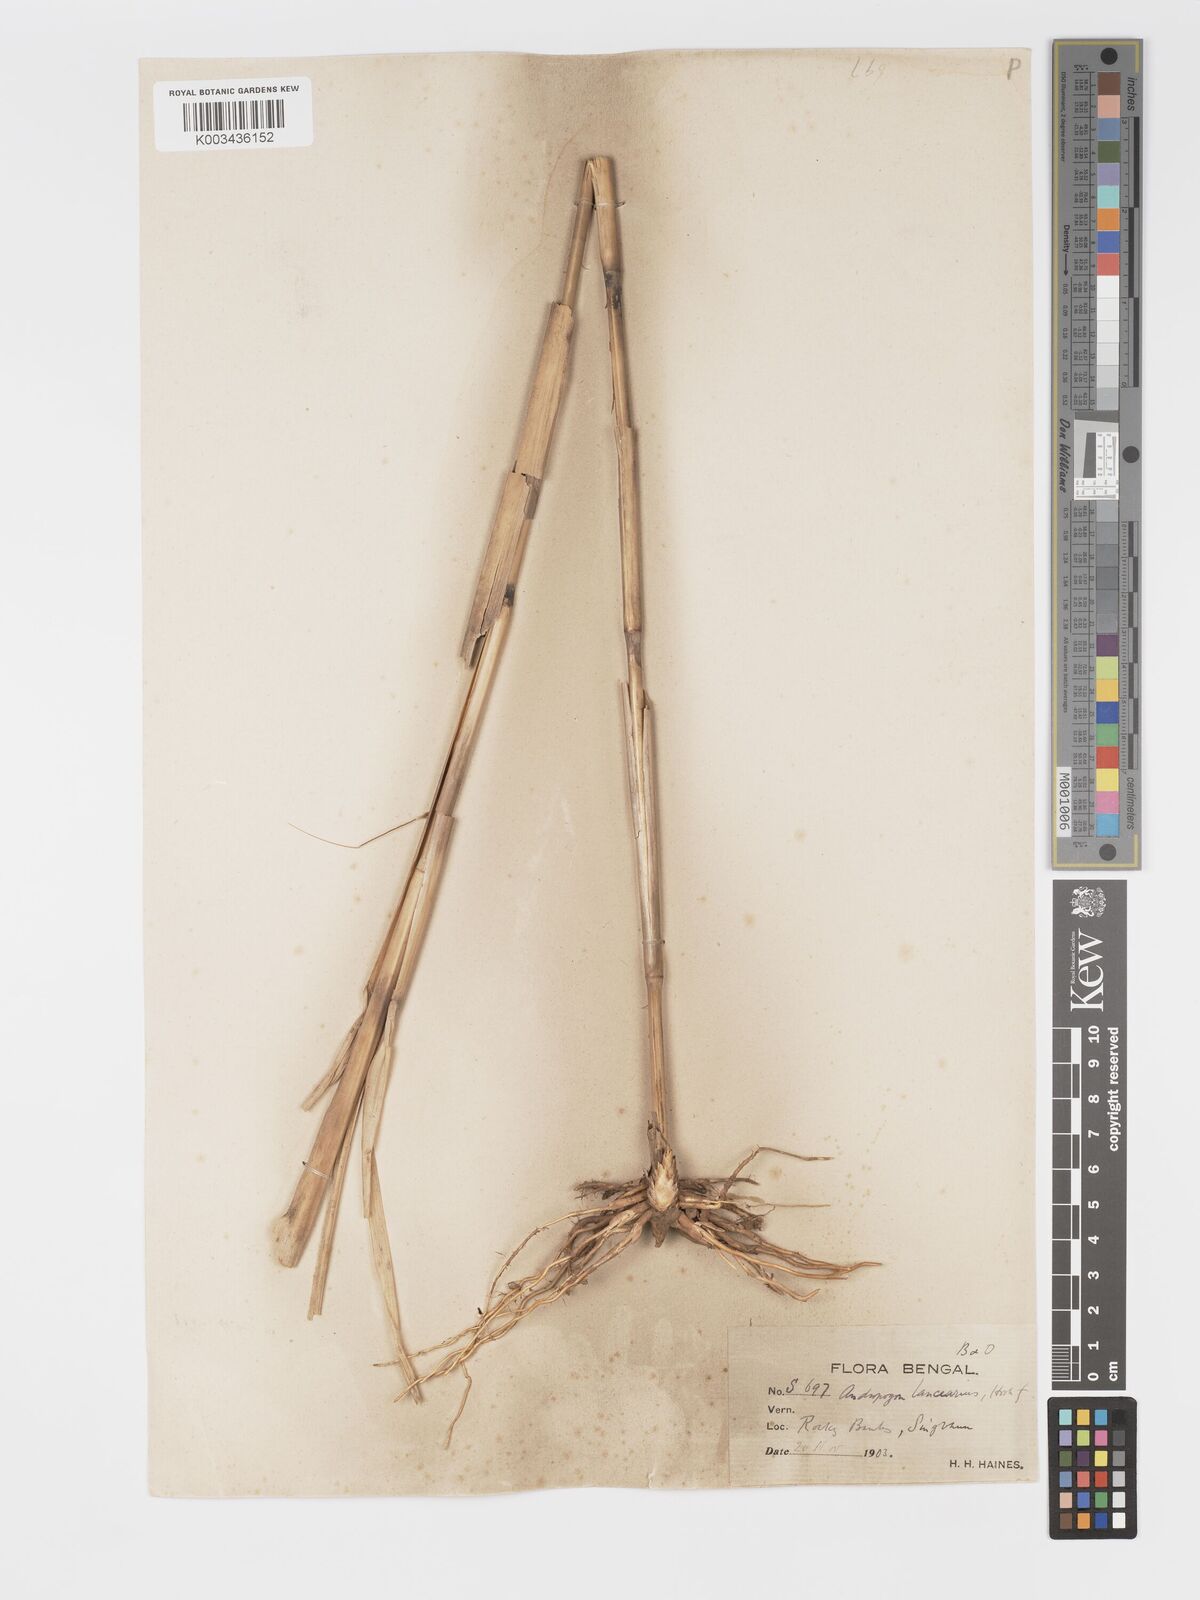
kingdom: Plantae
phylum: Tracheophyta
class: Liliopsida
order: Poales
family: Poaceae
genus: Chrysopogon
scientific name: Chrysopogon lancearius
